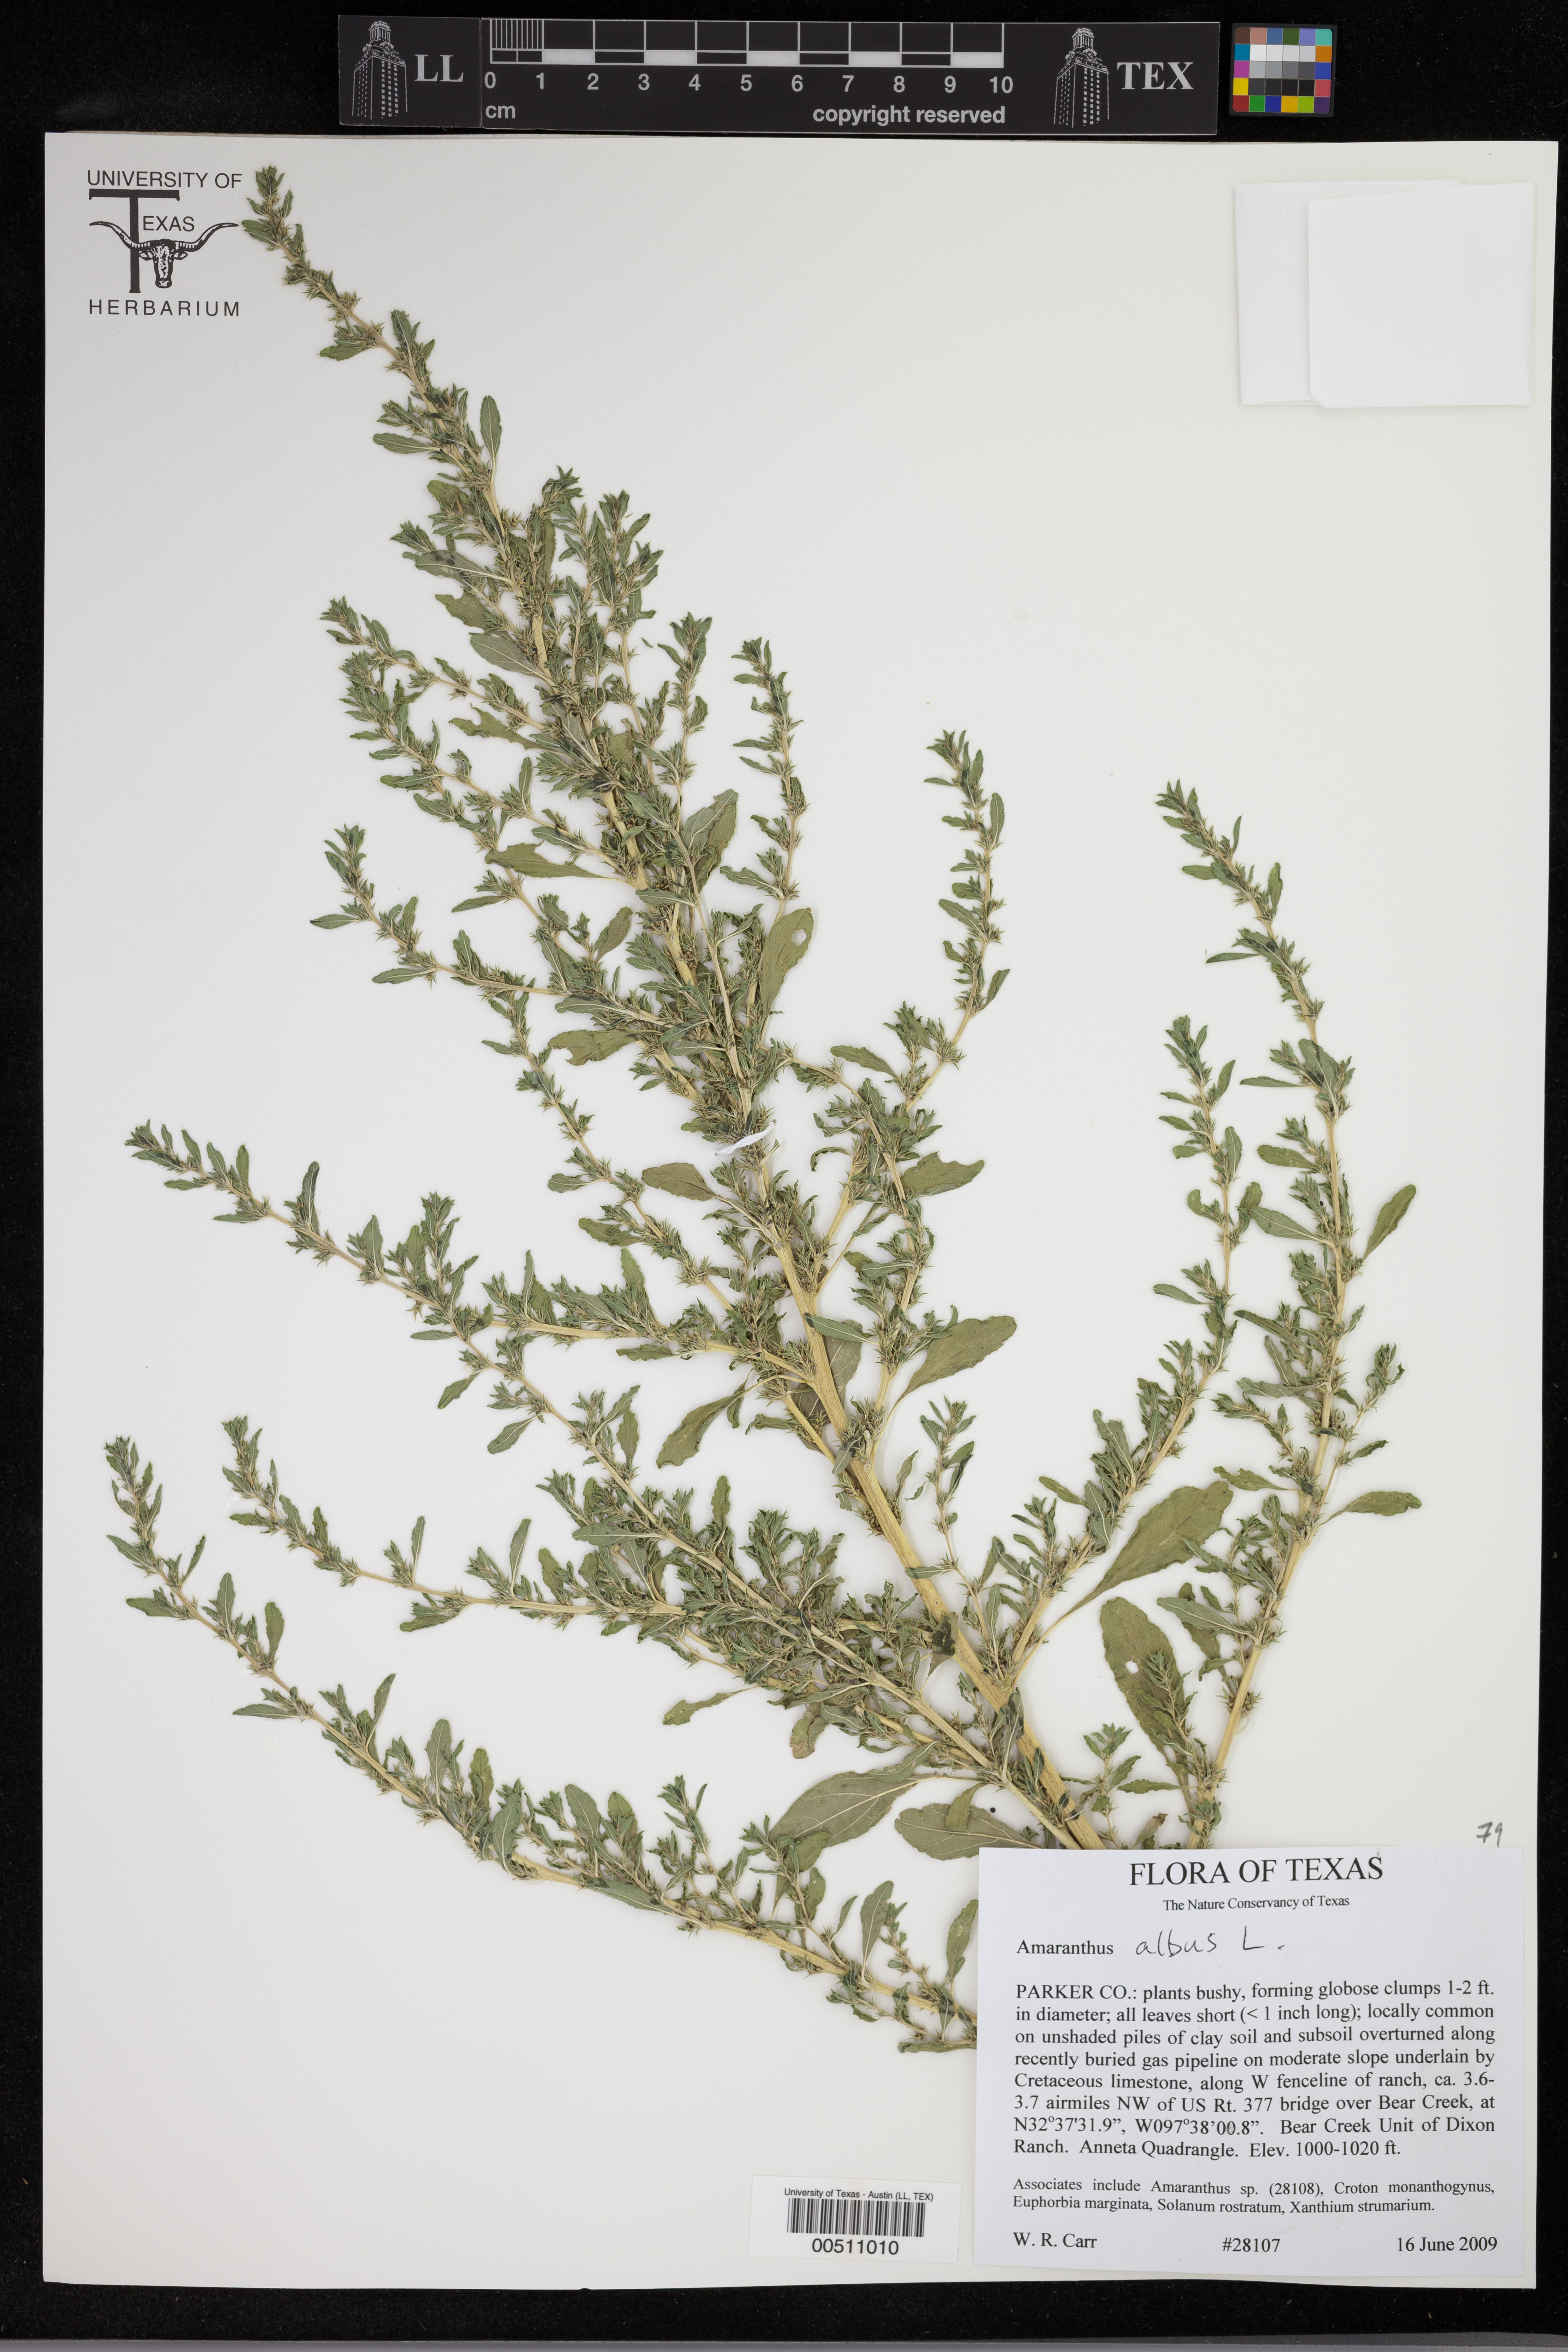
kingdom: Plantae
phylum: Tracheophyta
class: Magnoliopsida
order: Caryophyllales
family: Amaranthaceae
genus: Amaranthus
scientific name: Amaranthus albus
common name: White pigweed
